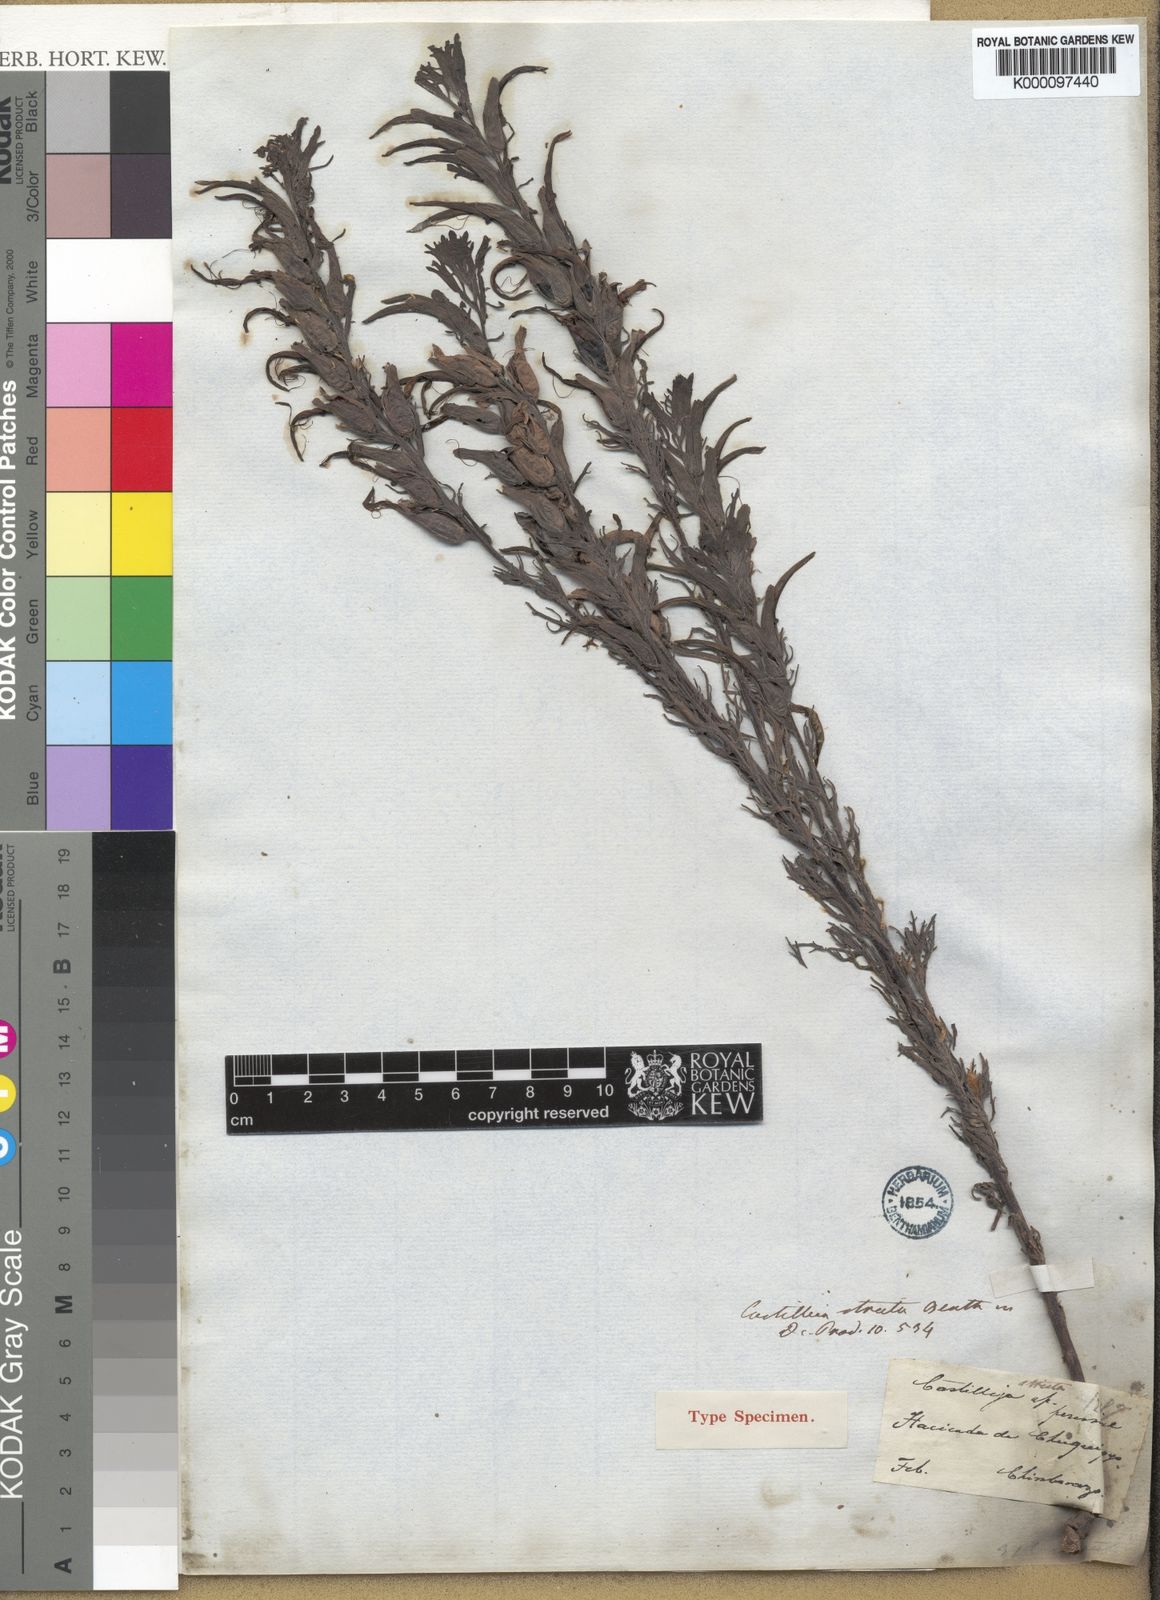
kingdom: Plantae
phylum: Tracheophyta
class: Magnoliopsida
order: Lamiales
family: Orobanchaceae
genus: Castilleja
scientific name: Castilleja fissifolia
